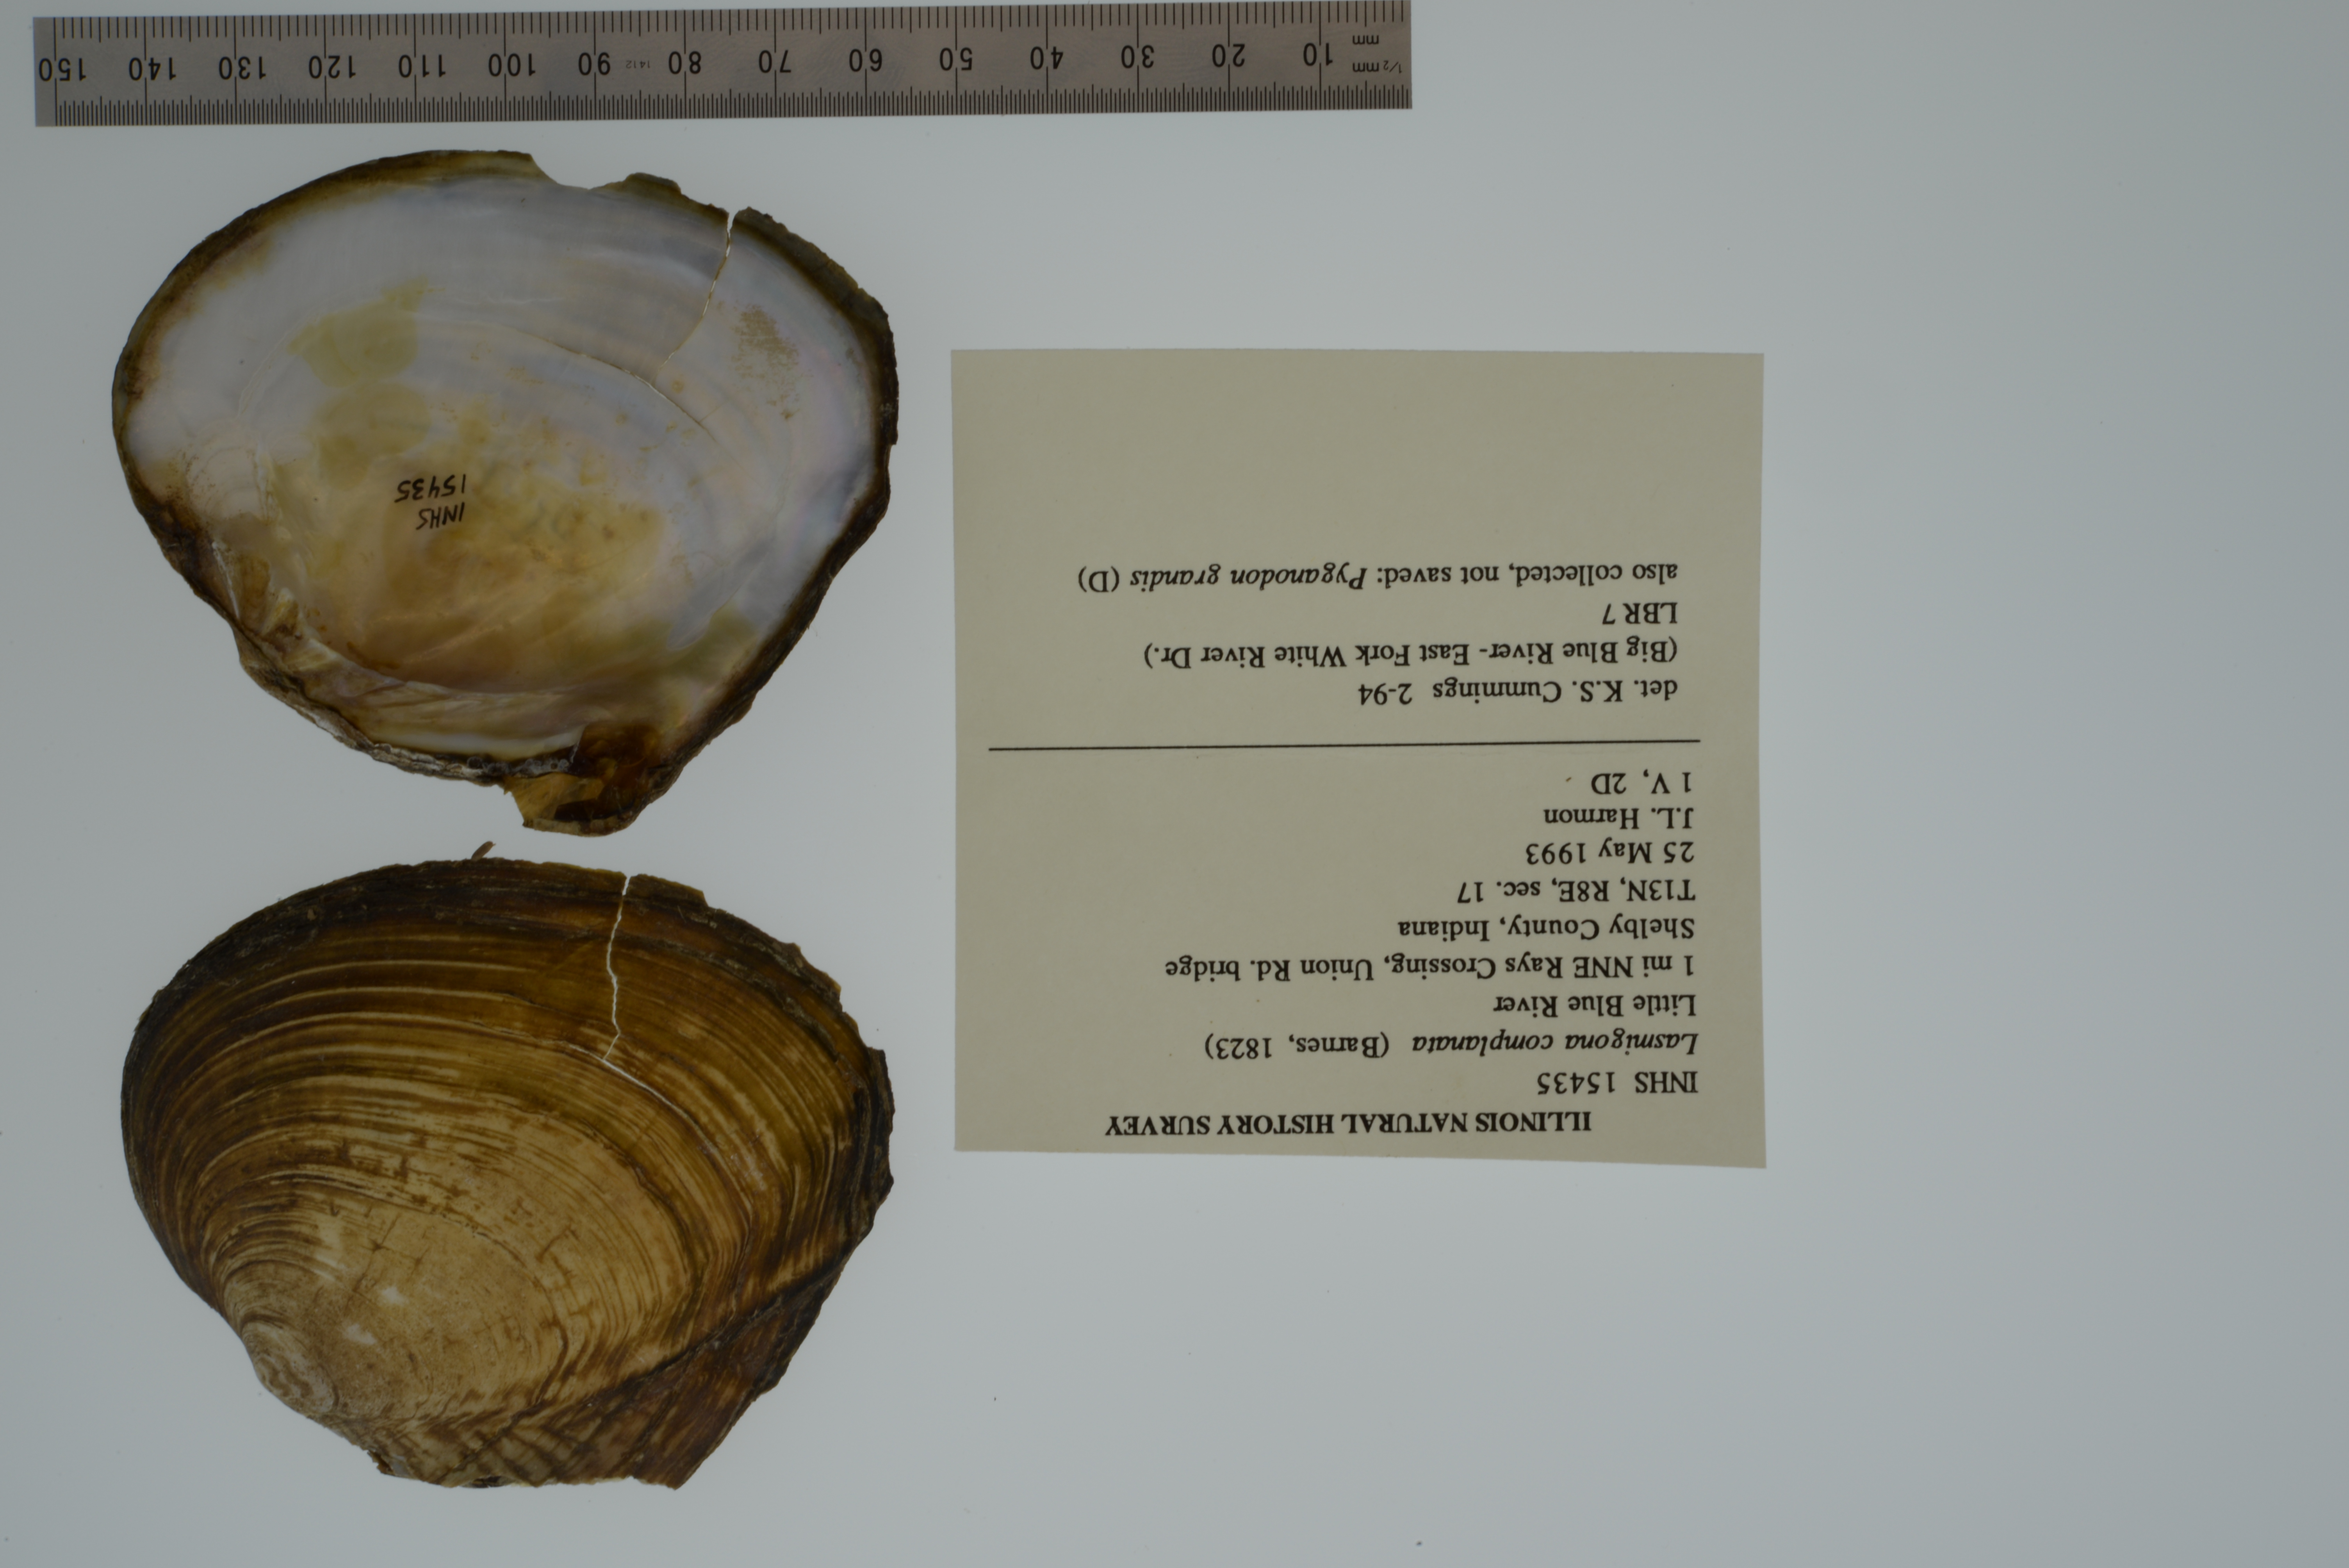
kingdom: Animalia
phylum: Mollusca
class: Bivalvia
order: Unionida
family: Unionidae
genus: Lasmigona
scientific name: Lasmigona complanata
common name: White heelsplitter
